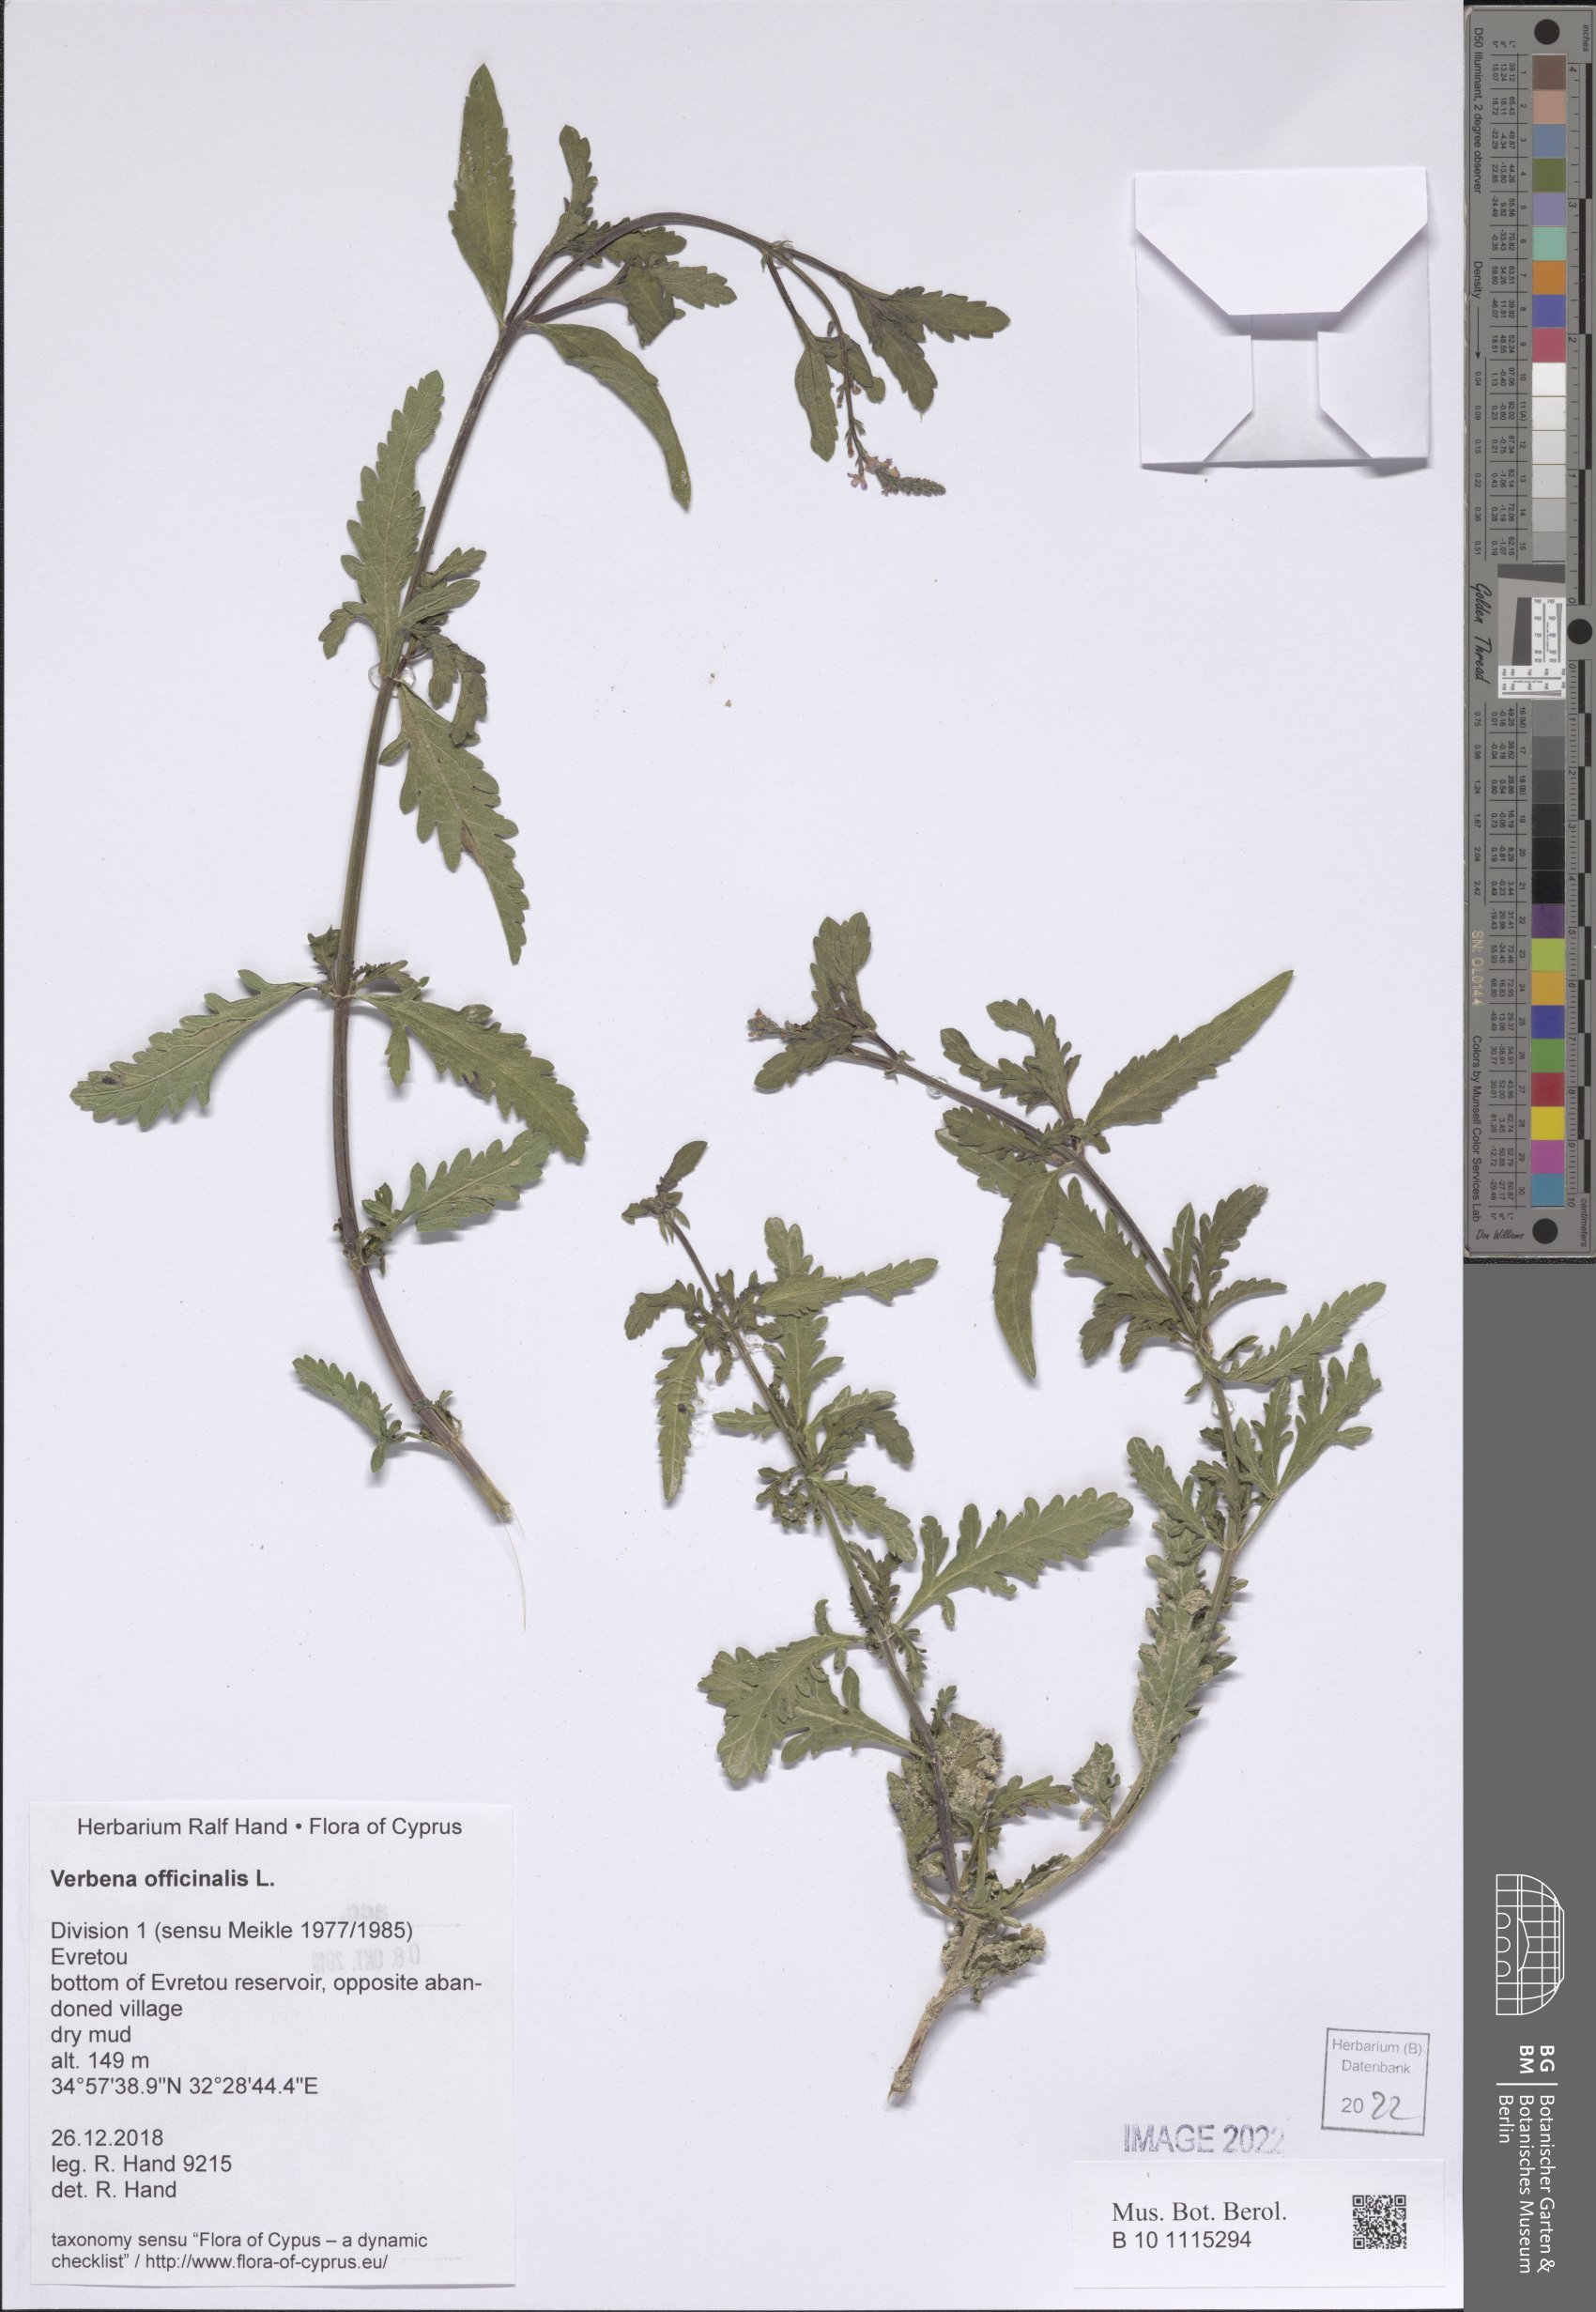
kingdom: Plantae
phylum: Tracheophyta
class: Magnoliopsida
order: Lamiales
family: Verbenaceae
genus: Verbena
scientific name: Verbena officinalis
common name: Vervain
